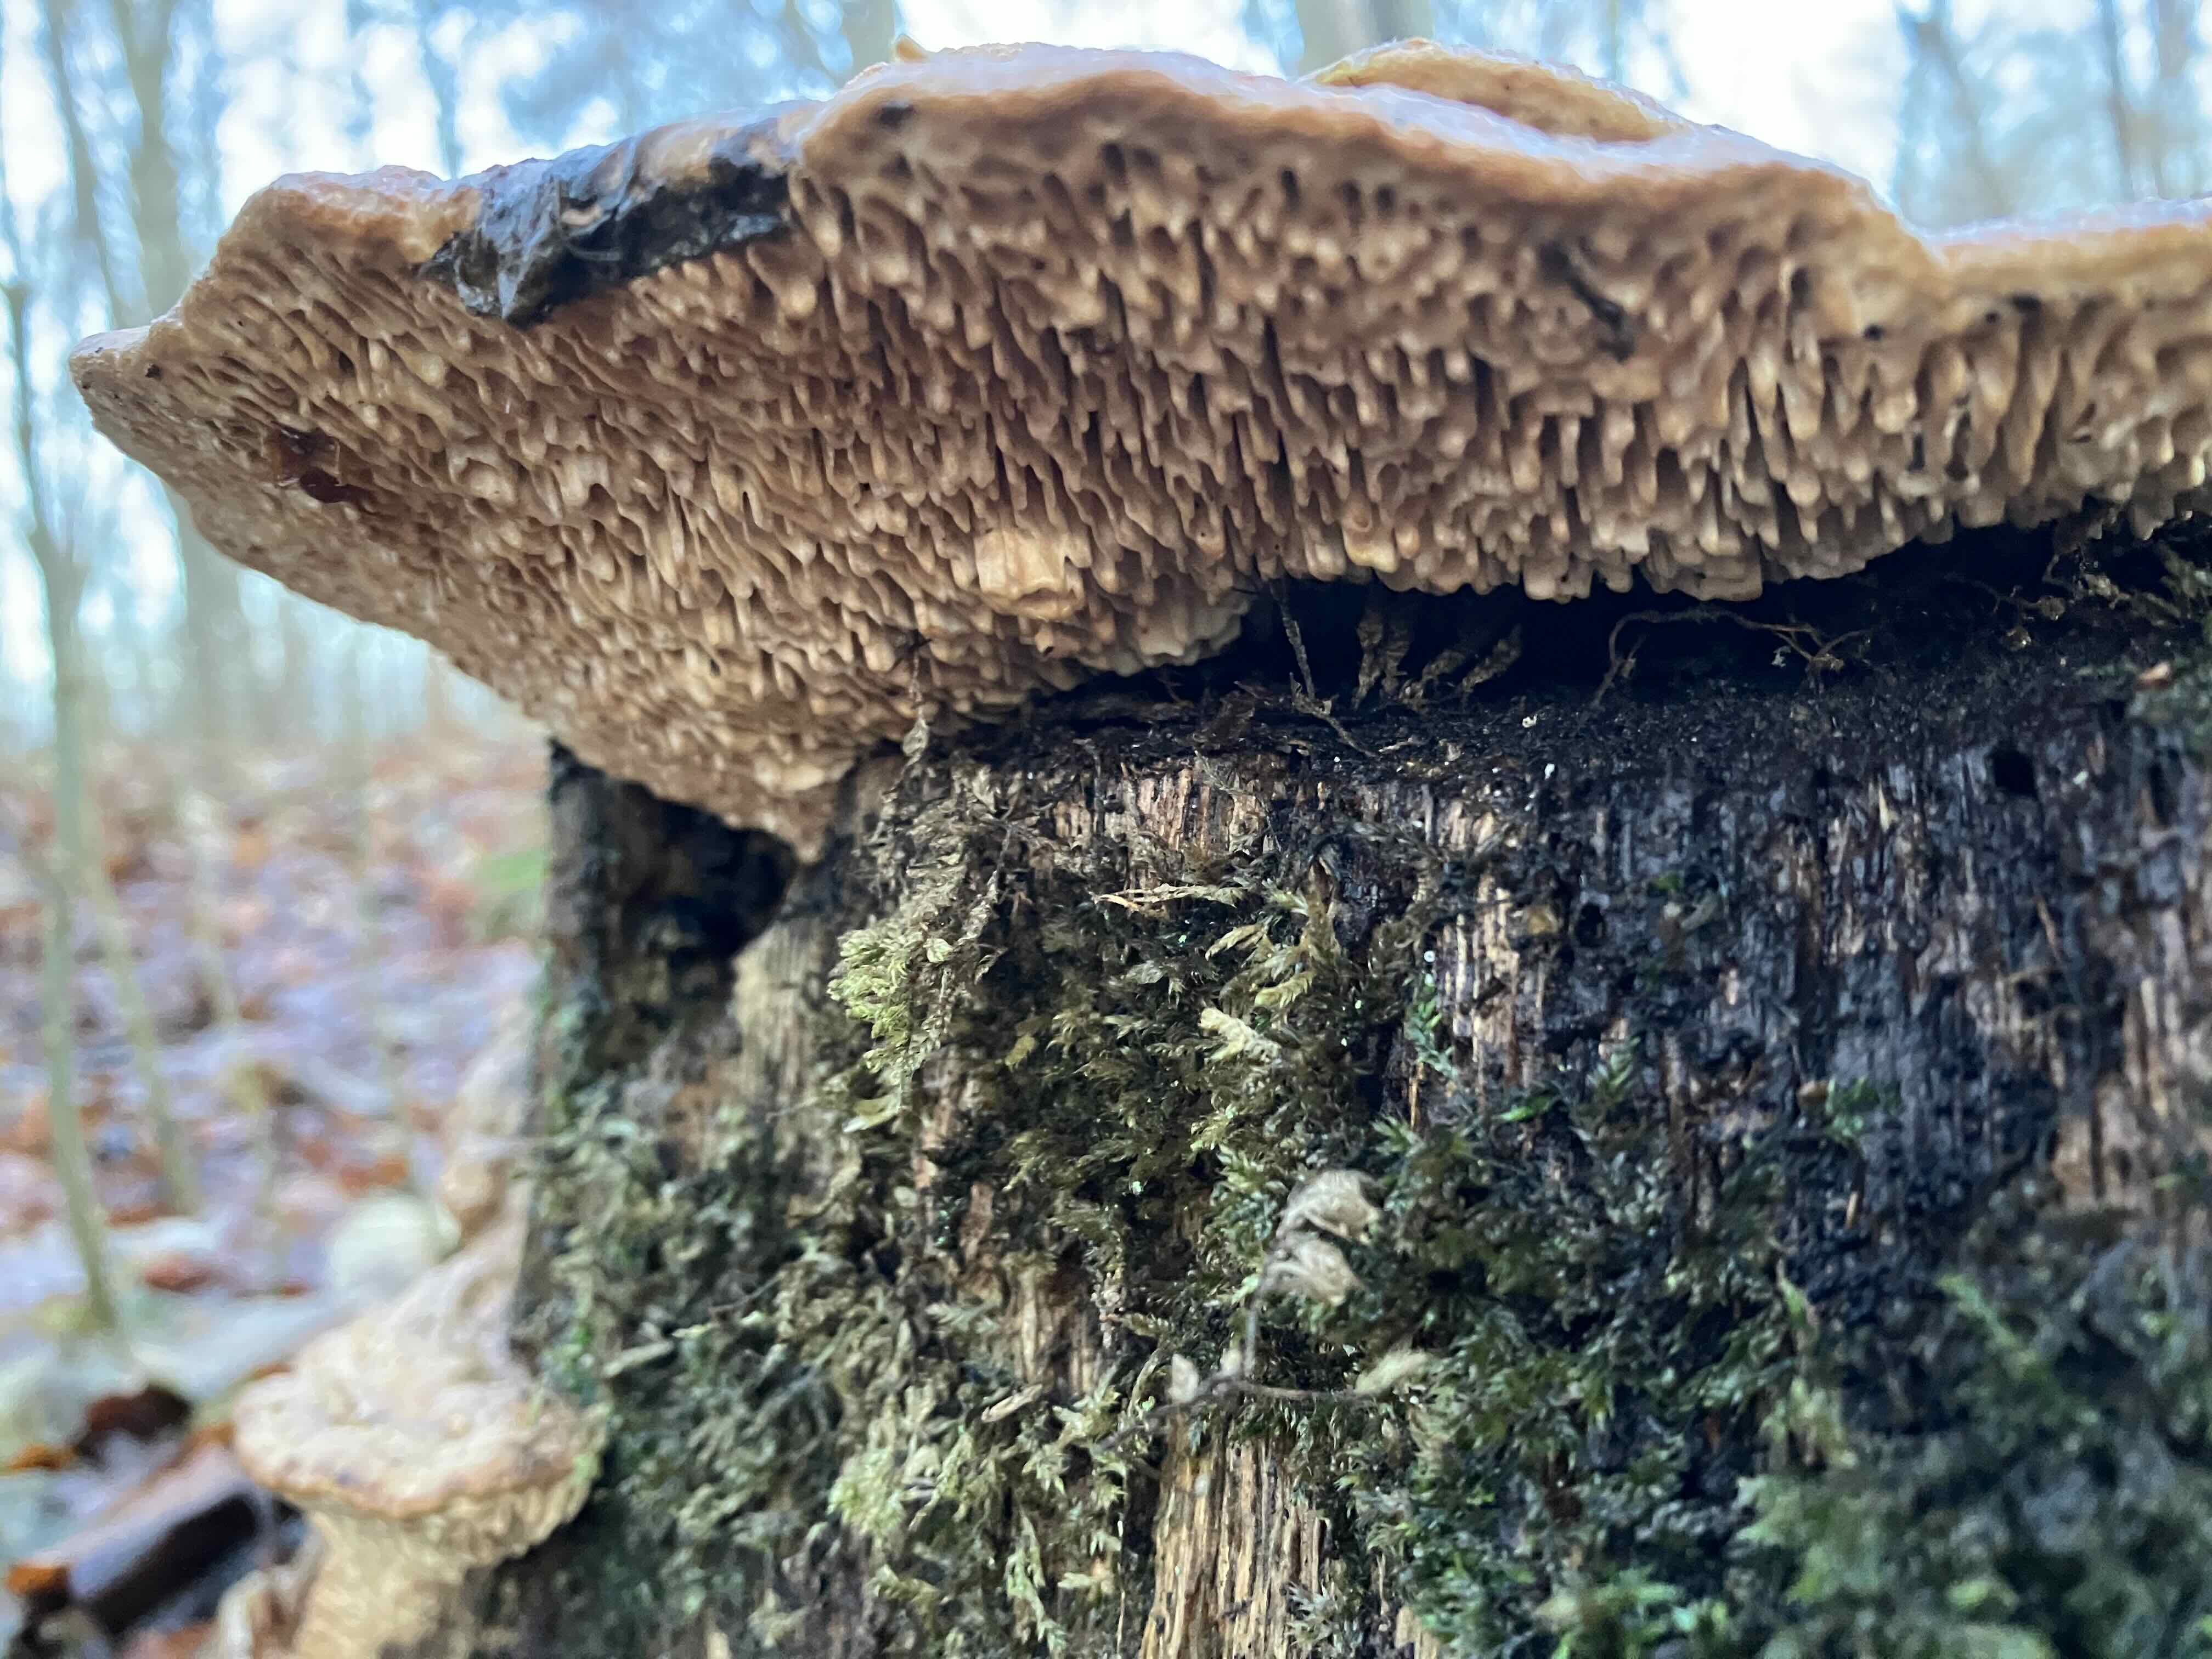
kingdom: Fungi
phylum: Basidiomycota
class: Agaricomycetes
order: Polyporales
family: Fomitopsidaceae
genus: Daedalea
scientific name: Daedalea quercina
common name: ege-labyrintsvamp
